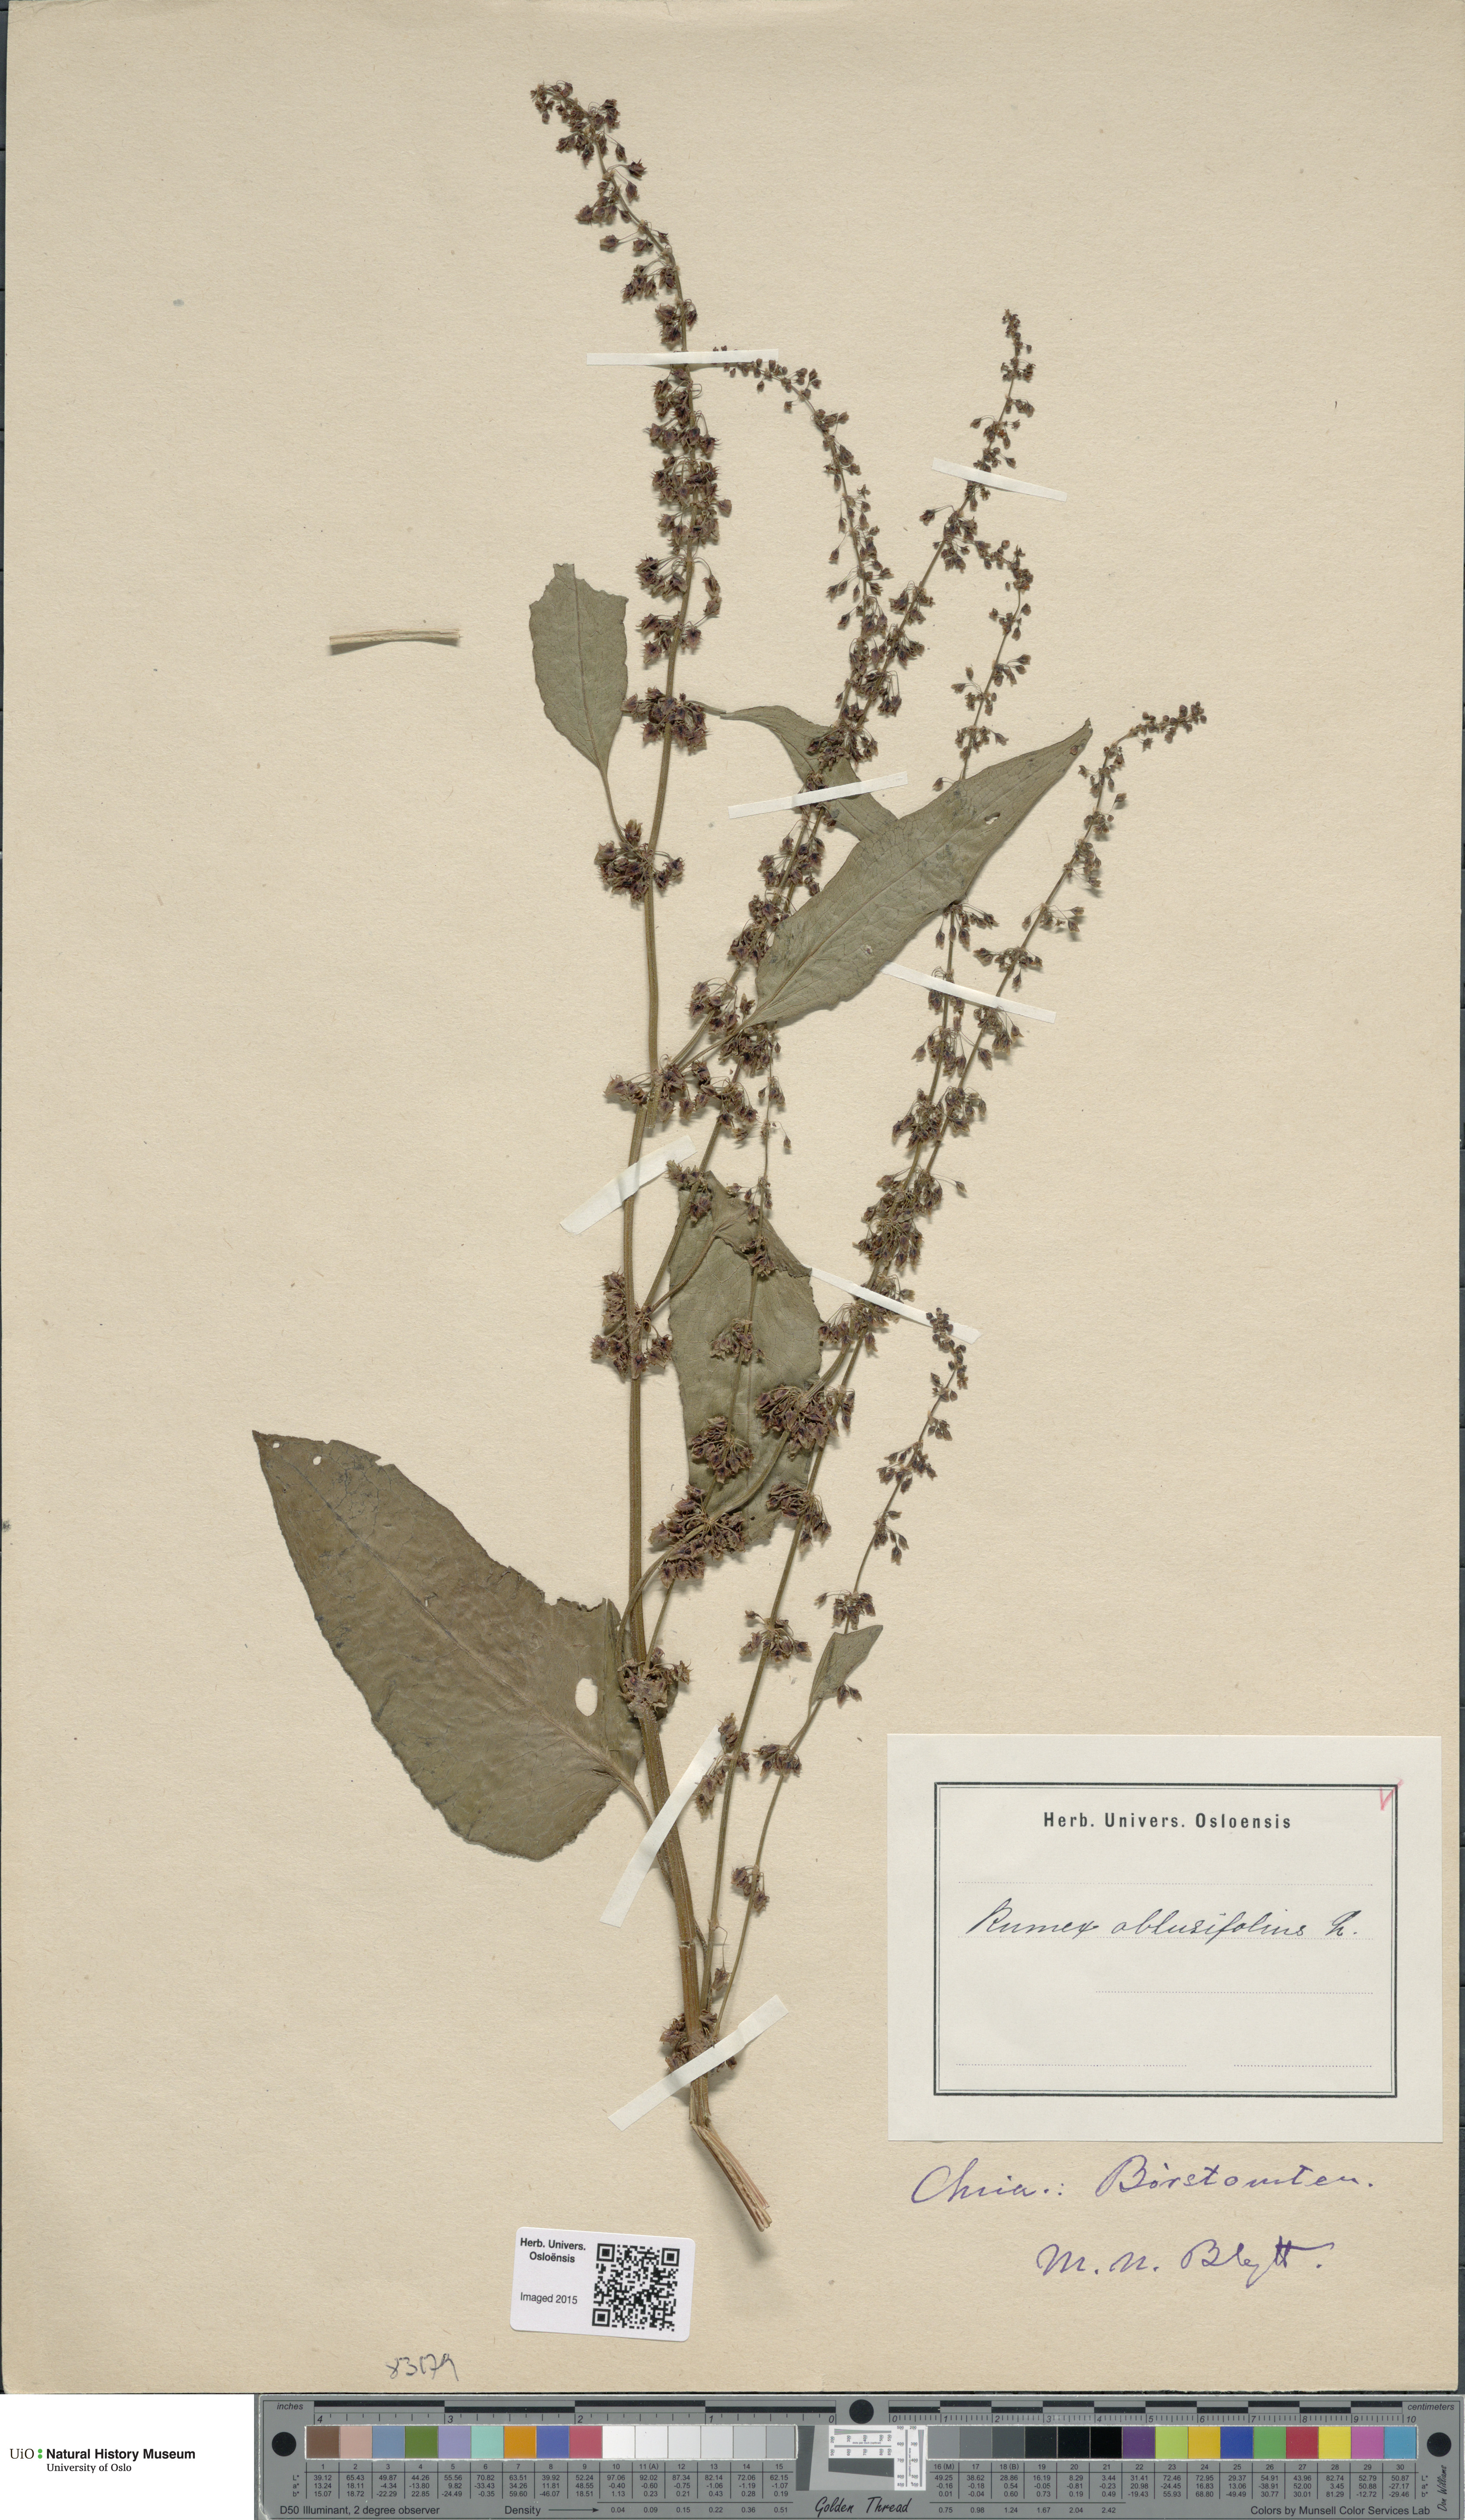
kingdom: Plantae
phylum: Tracheophyta
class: Magnoliopsida
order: Caryophyllales
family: Polygonaceae
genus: Rumex
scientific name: Rumex obtusifolius
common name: Bitter dock
